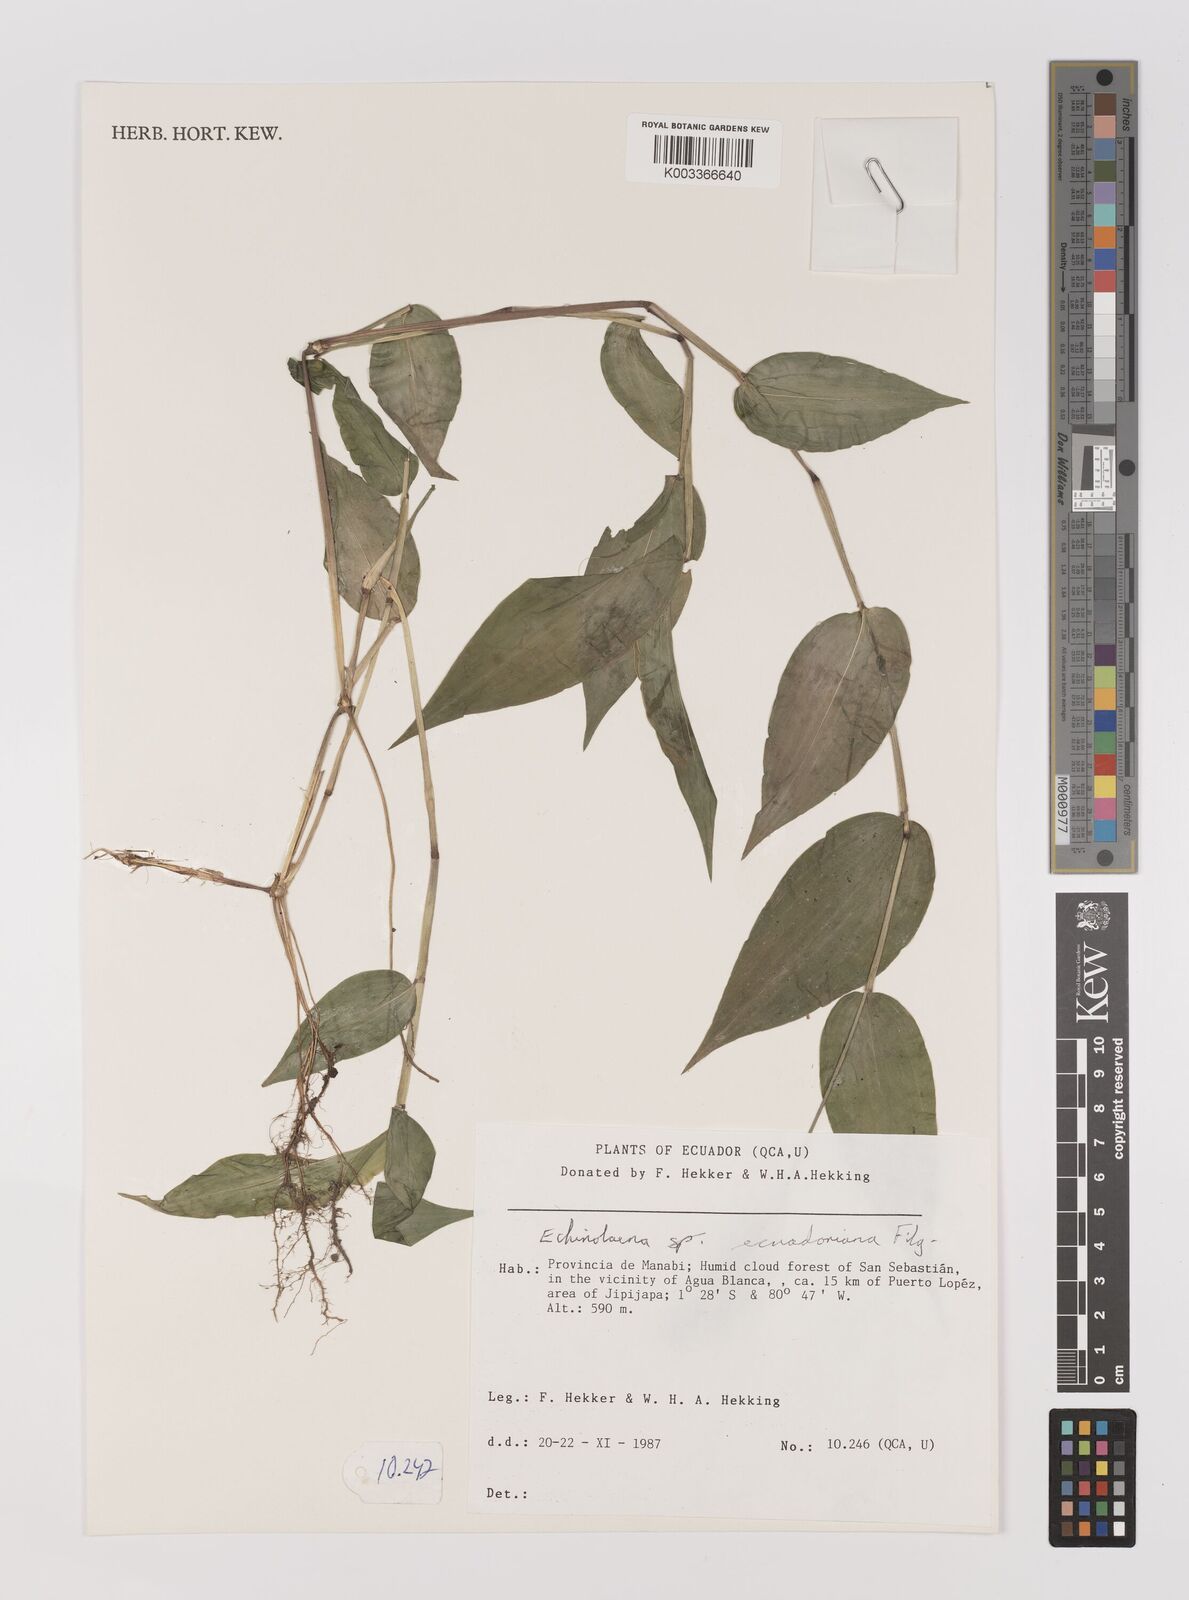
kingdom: Plantae
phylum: Tracheophyta
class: Liliopsida
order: Poales
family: Poaceae
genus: Oedochloa
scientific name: Oedochloa ecuadoriana
